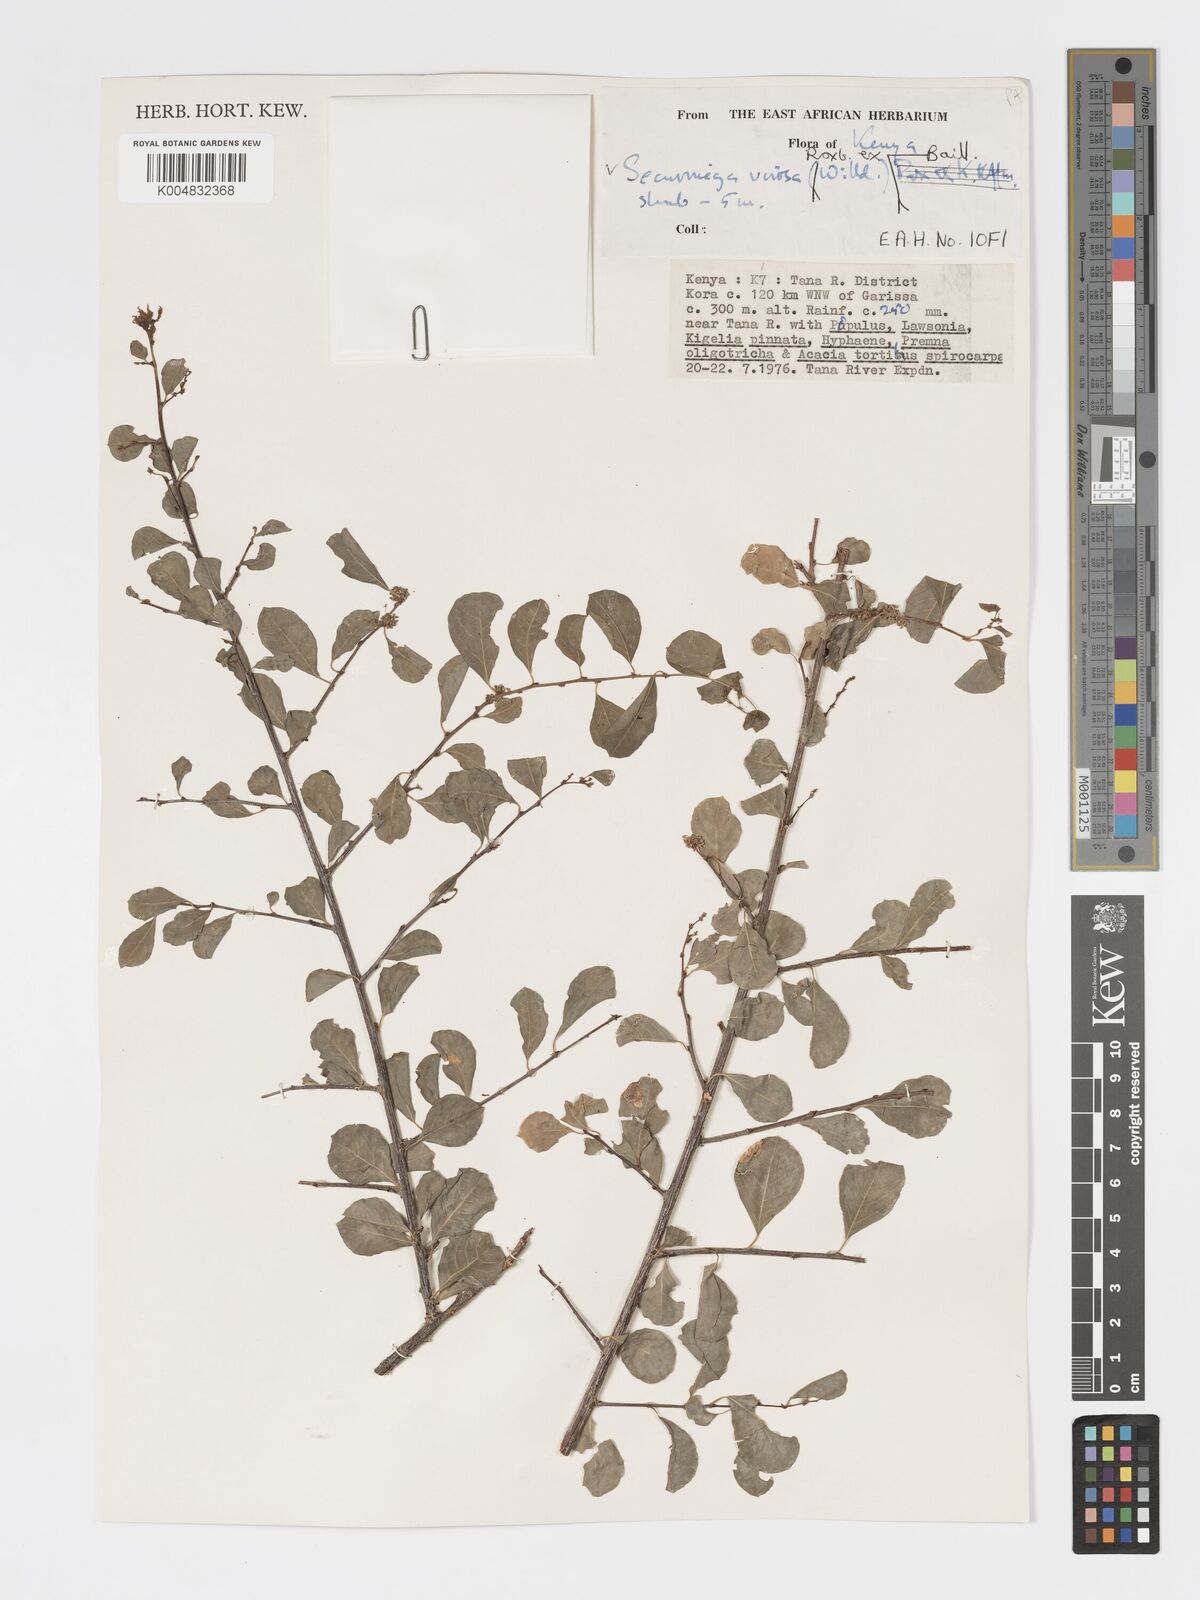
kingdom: Plantae
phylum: Tracheophyta
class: Magnoliopsida
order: Malpighiales
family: Phyllanthaceae
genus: Flueggea
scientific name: Flueggea virosa
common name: Common bushweed
